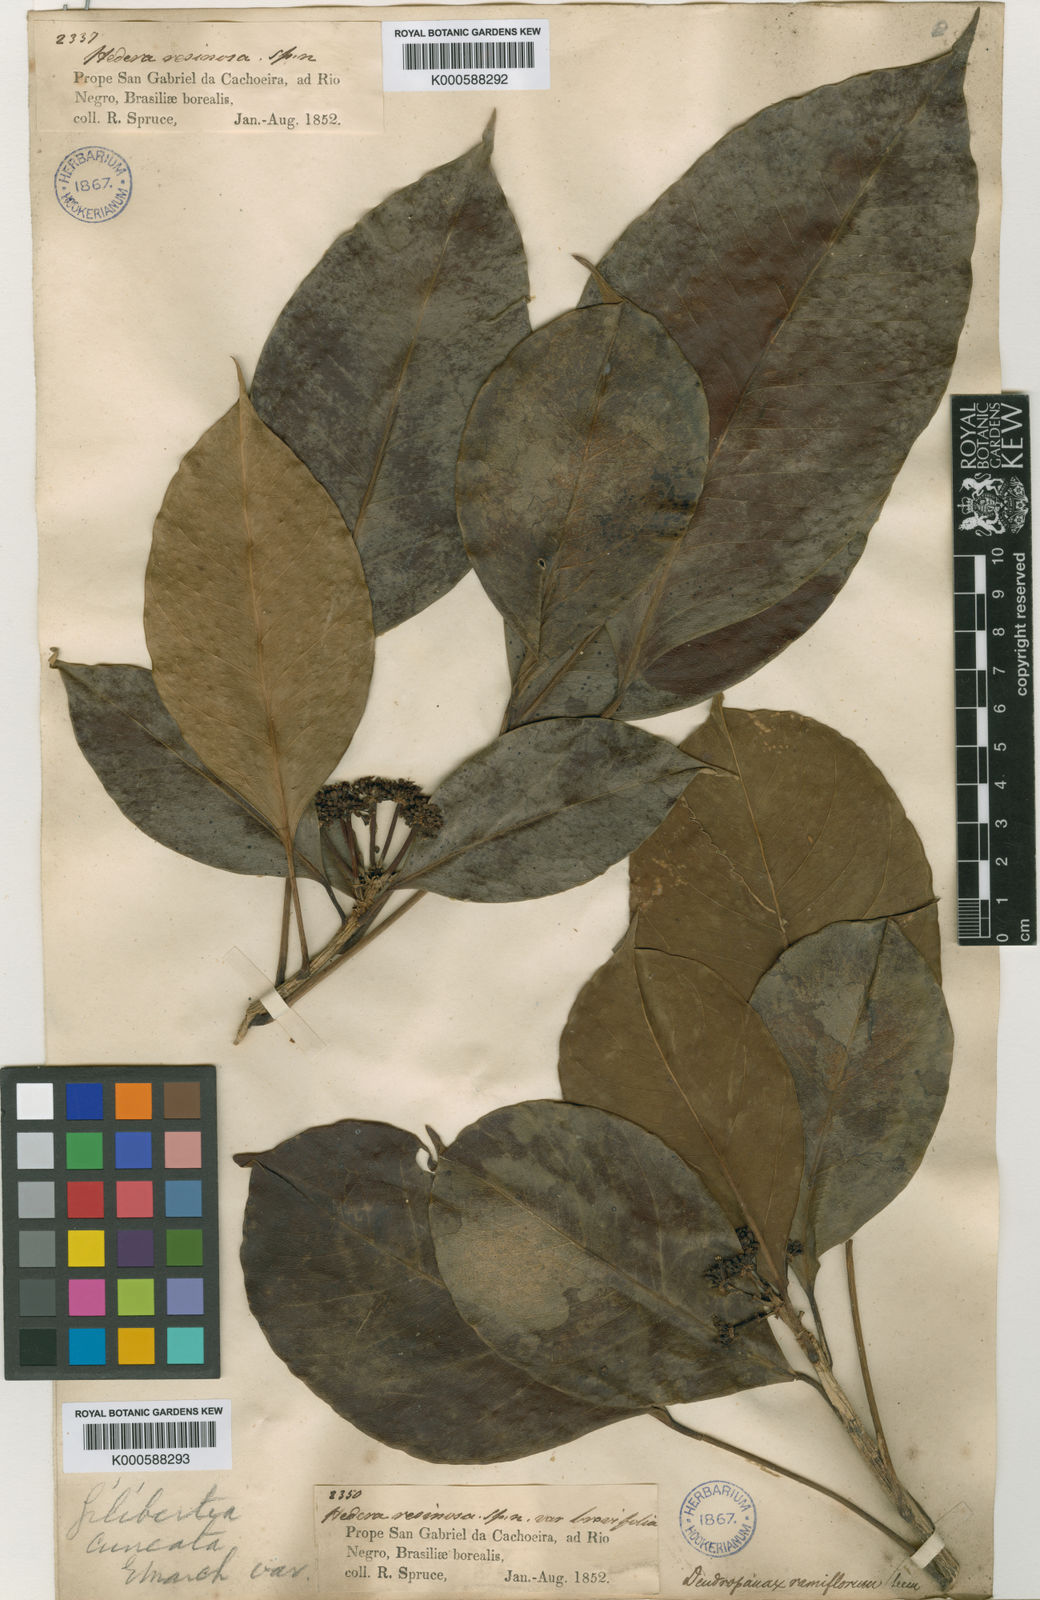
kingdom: Plantae
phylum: Tracheophyta
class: Magnoliopsida
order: Apiales
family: Araliaceae
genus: Dendropanax
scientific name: Dendropanax resinosus
